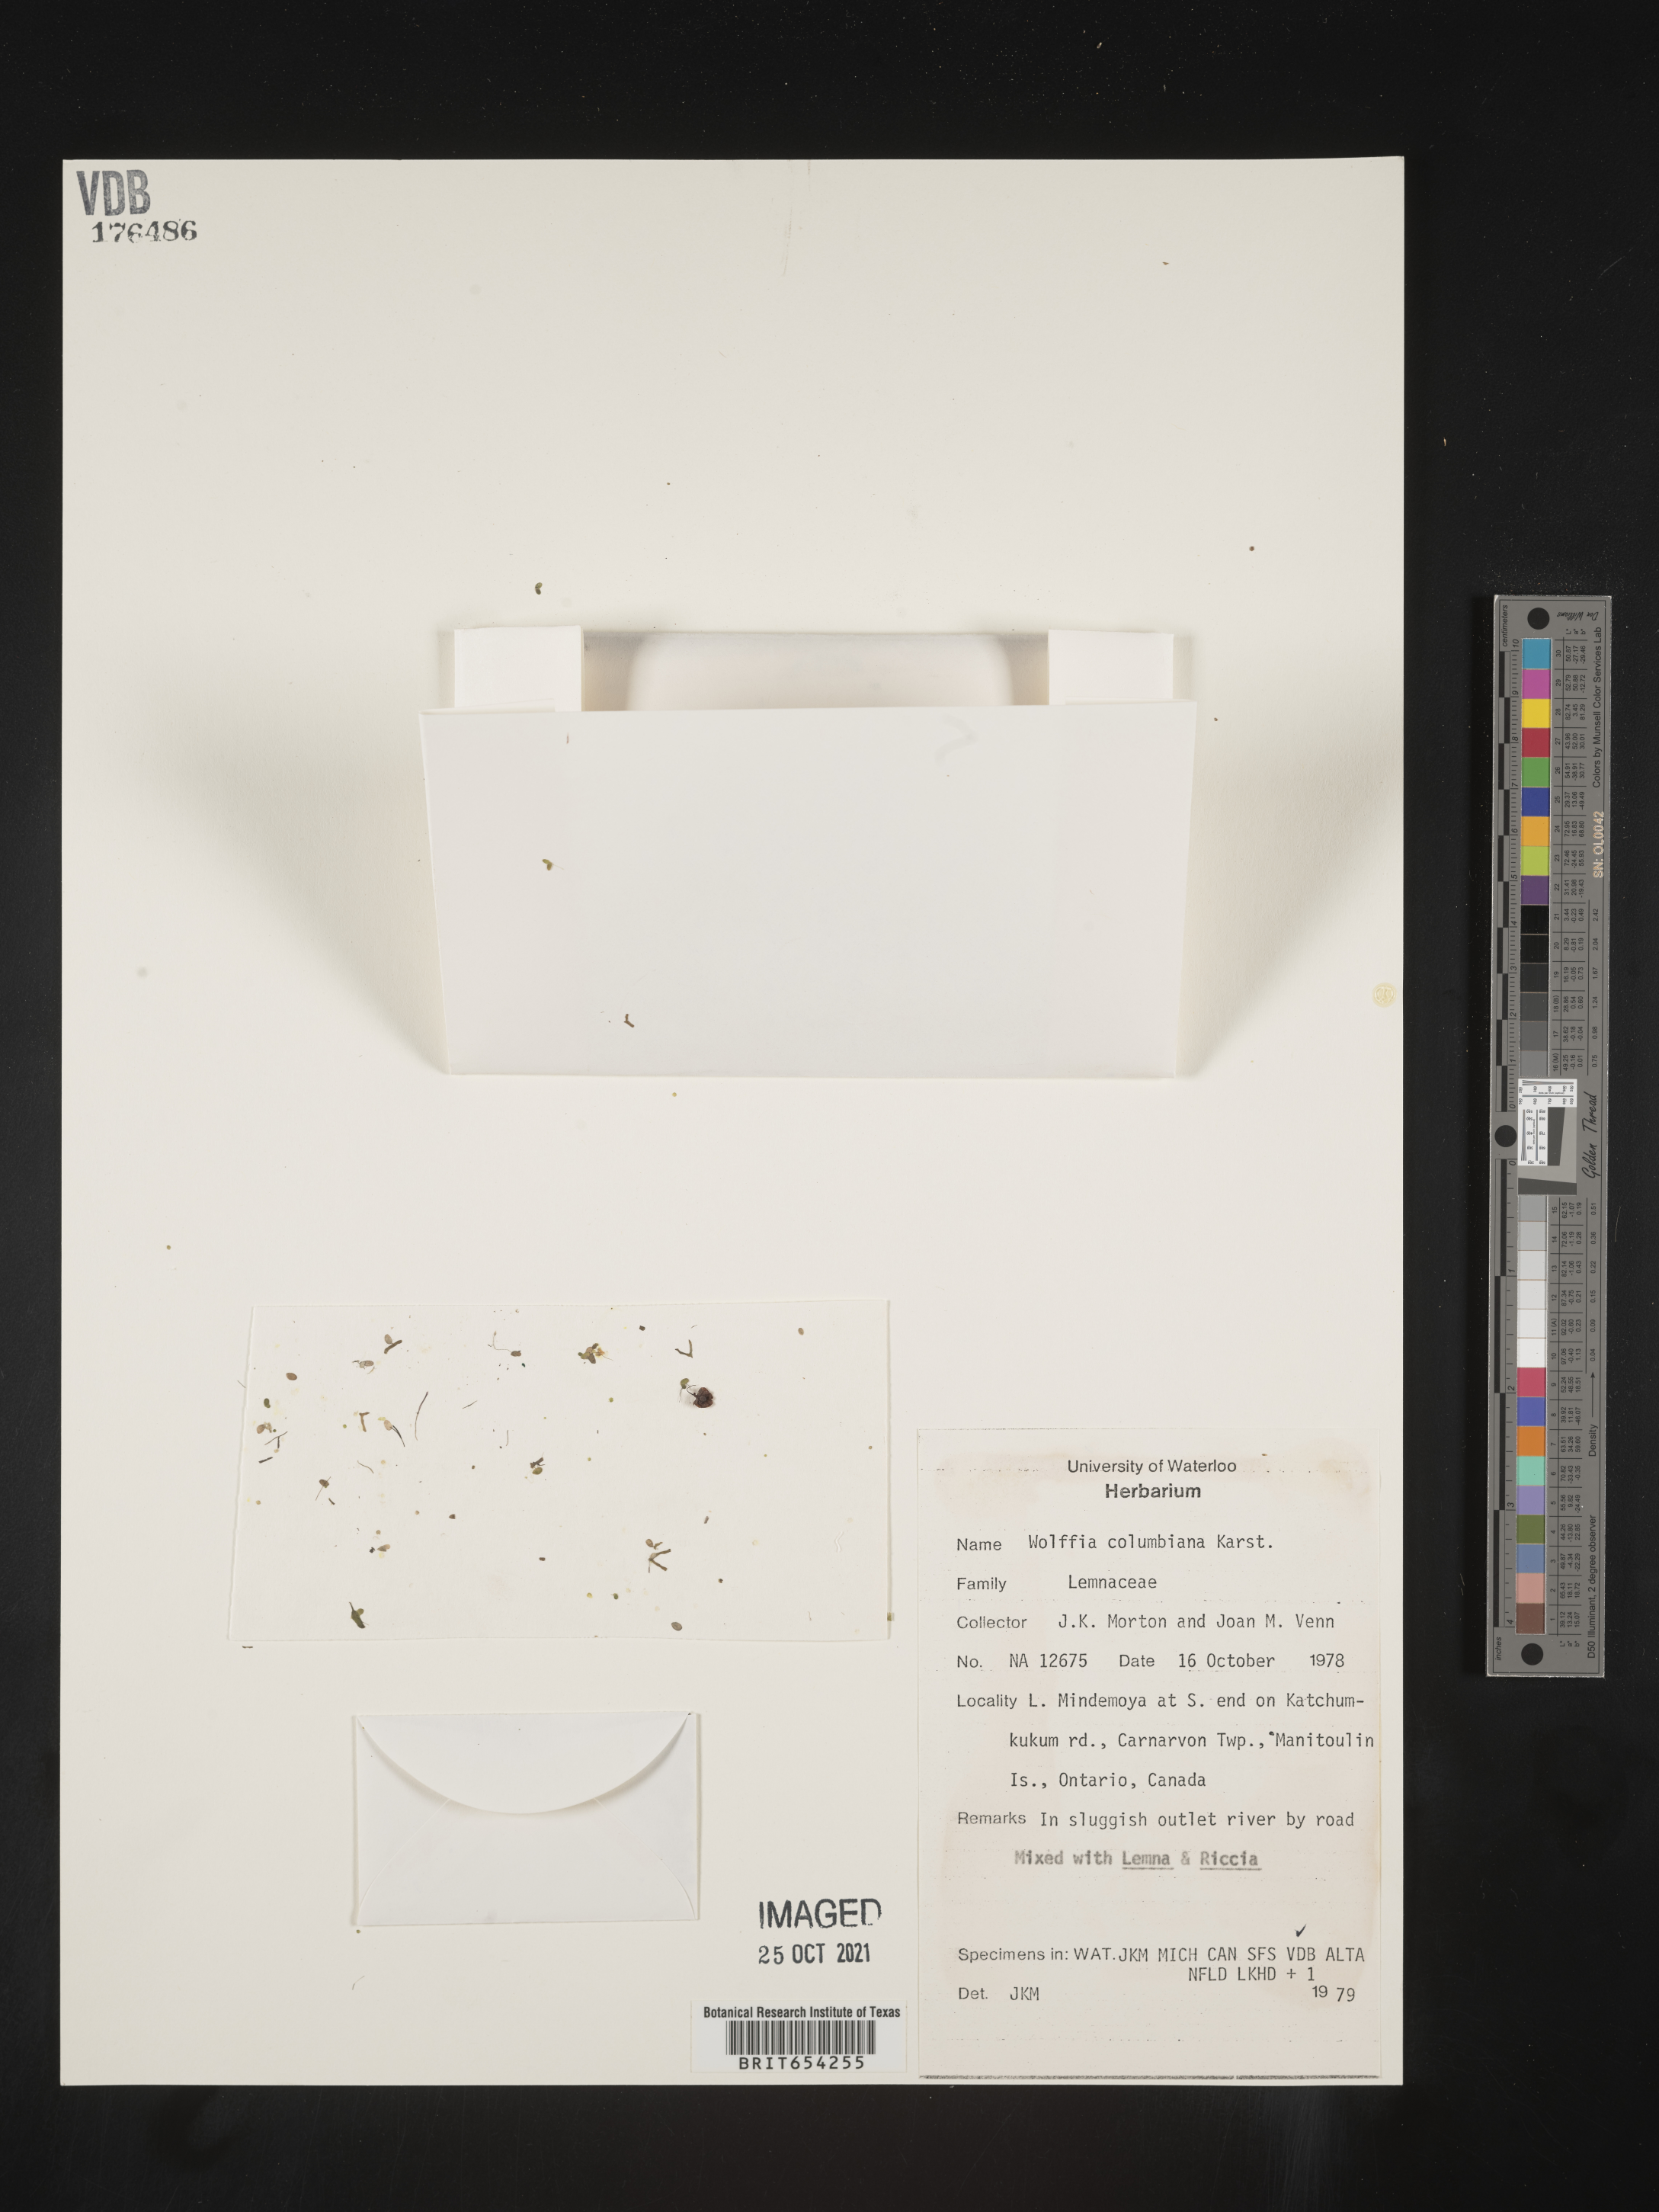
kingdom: Plantae
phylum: Tracheophyta
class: Liliopsida
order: Alismatales
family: Araceae
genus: Wolffia
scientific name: Wolffia columbiana
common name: Columbia watermeal
